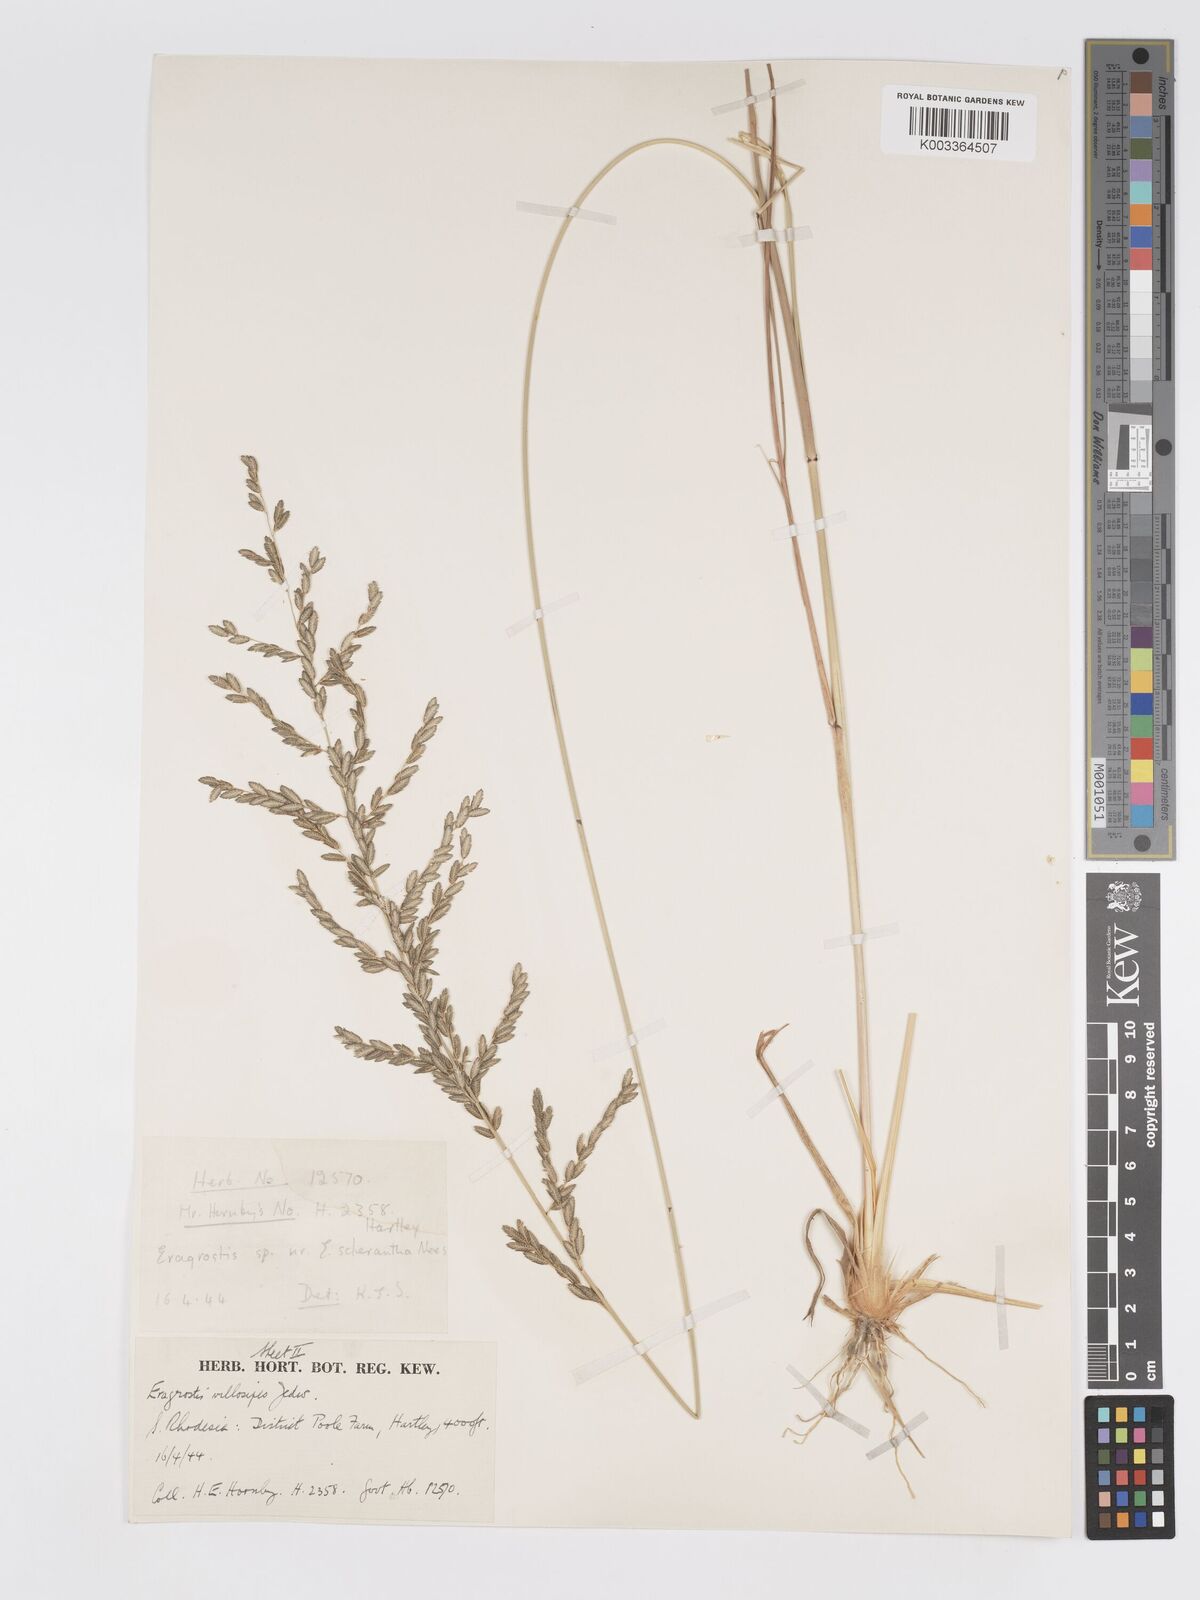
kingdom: Plantae
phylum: Tracheophyta
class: Liliopsida
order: Poales
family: Poaceae
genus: Eragrostis
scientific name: Eragrostis sclerantha
